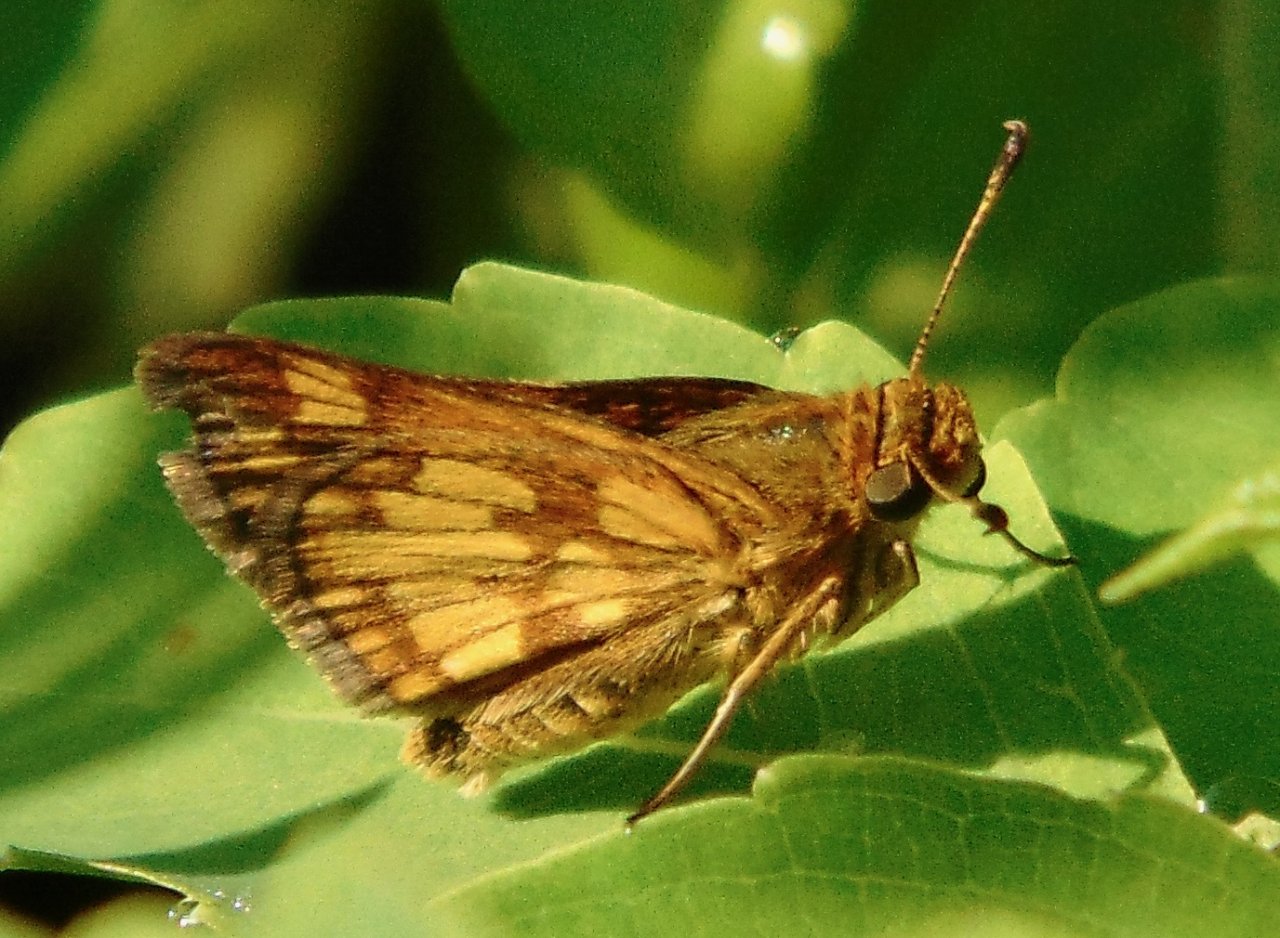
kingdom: Animalia
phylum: Arthropoda
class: Insecta
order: Lepidoptera
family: Hesperiidae
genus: Polites
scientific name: Polites coras
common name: Peck's Skipper
